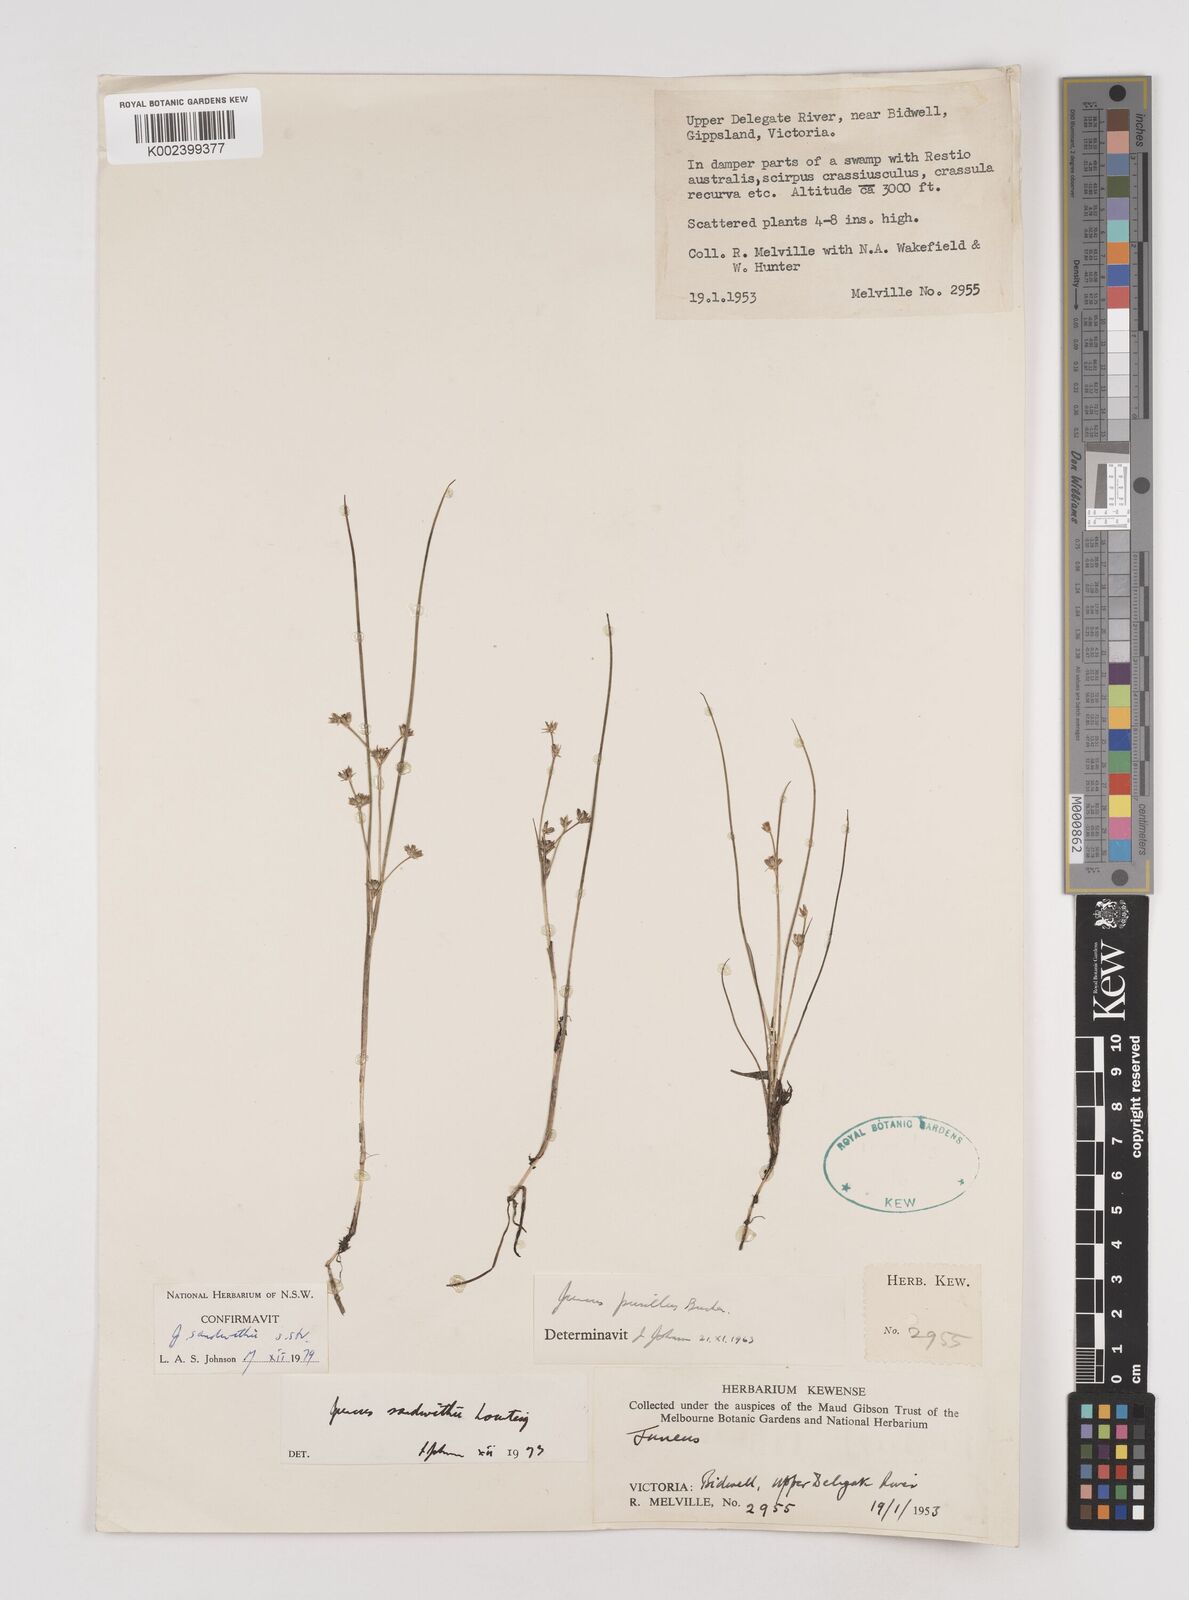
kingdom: Plantae
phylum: Tracheophyta
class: Liliopsida
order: Poales
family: Juncaceae
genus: Juncus
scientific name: Juncus sandwithii
